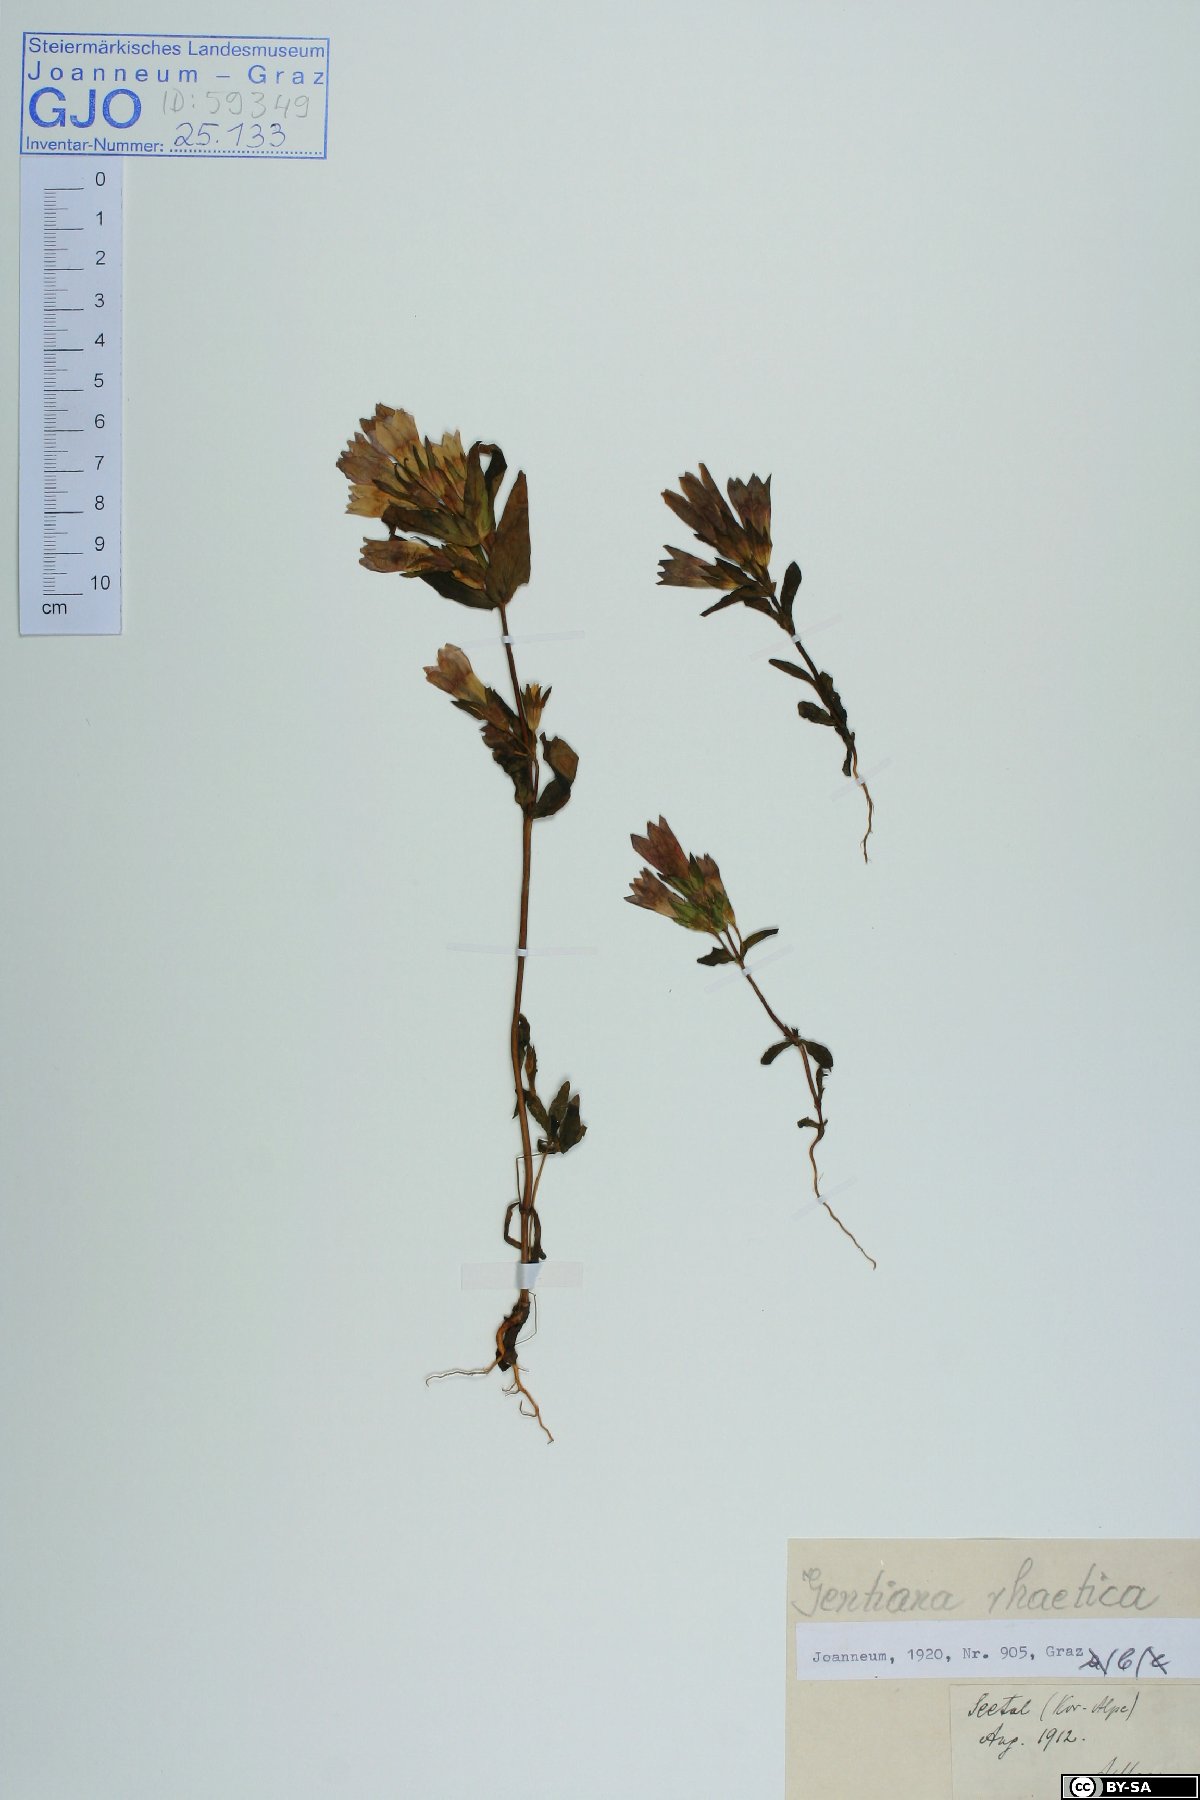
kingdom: Plantae
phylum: Tracheophyta
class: Magnoliopsida
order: Gentianales
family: Gentianaceae
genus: Gentianella
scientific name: Gentianella rhaetica
